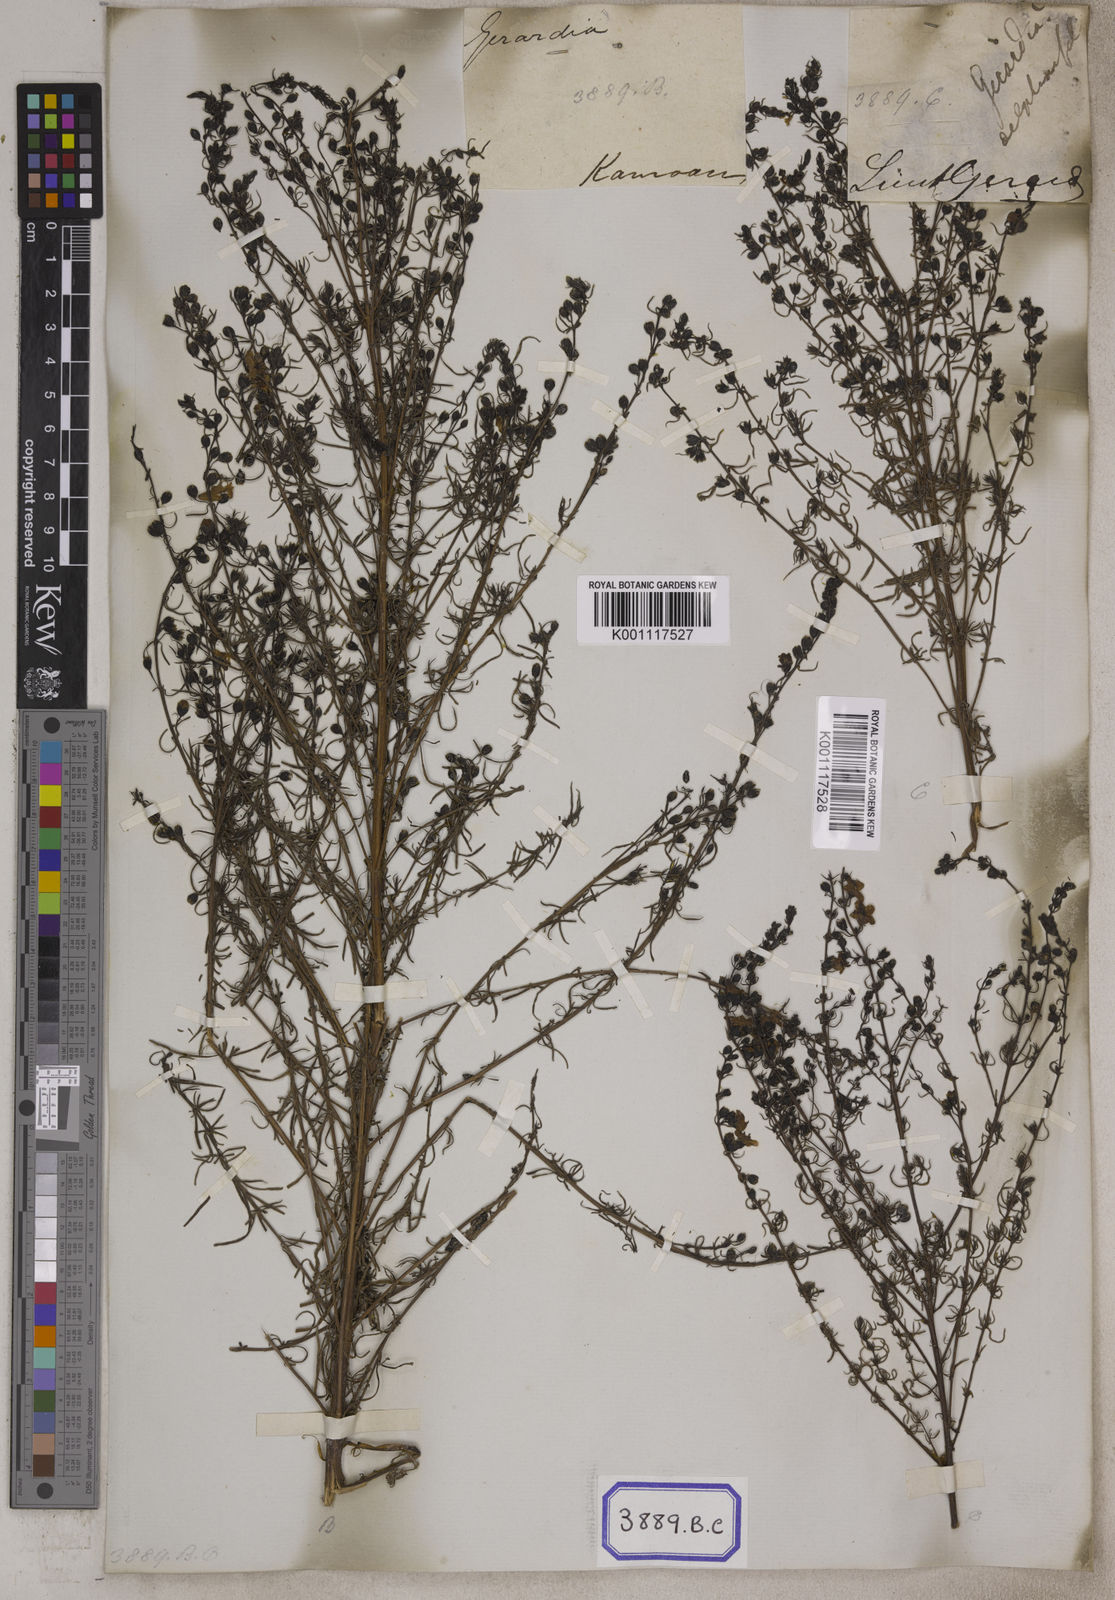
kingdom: Plantae
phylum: Tracheophyta
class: Magnoliopsida
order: Lamiales
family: Acanthaceae
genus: Stenandrium
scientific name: Stenandrium
